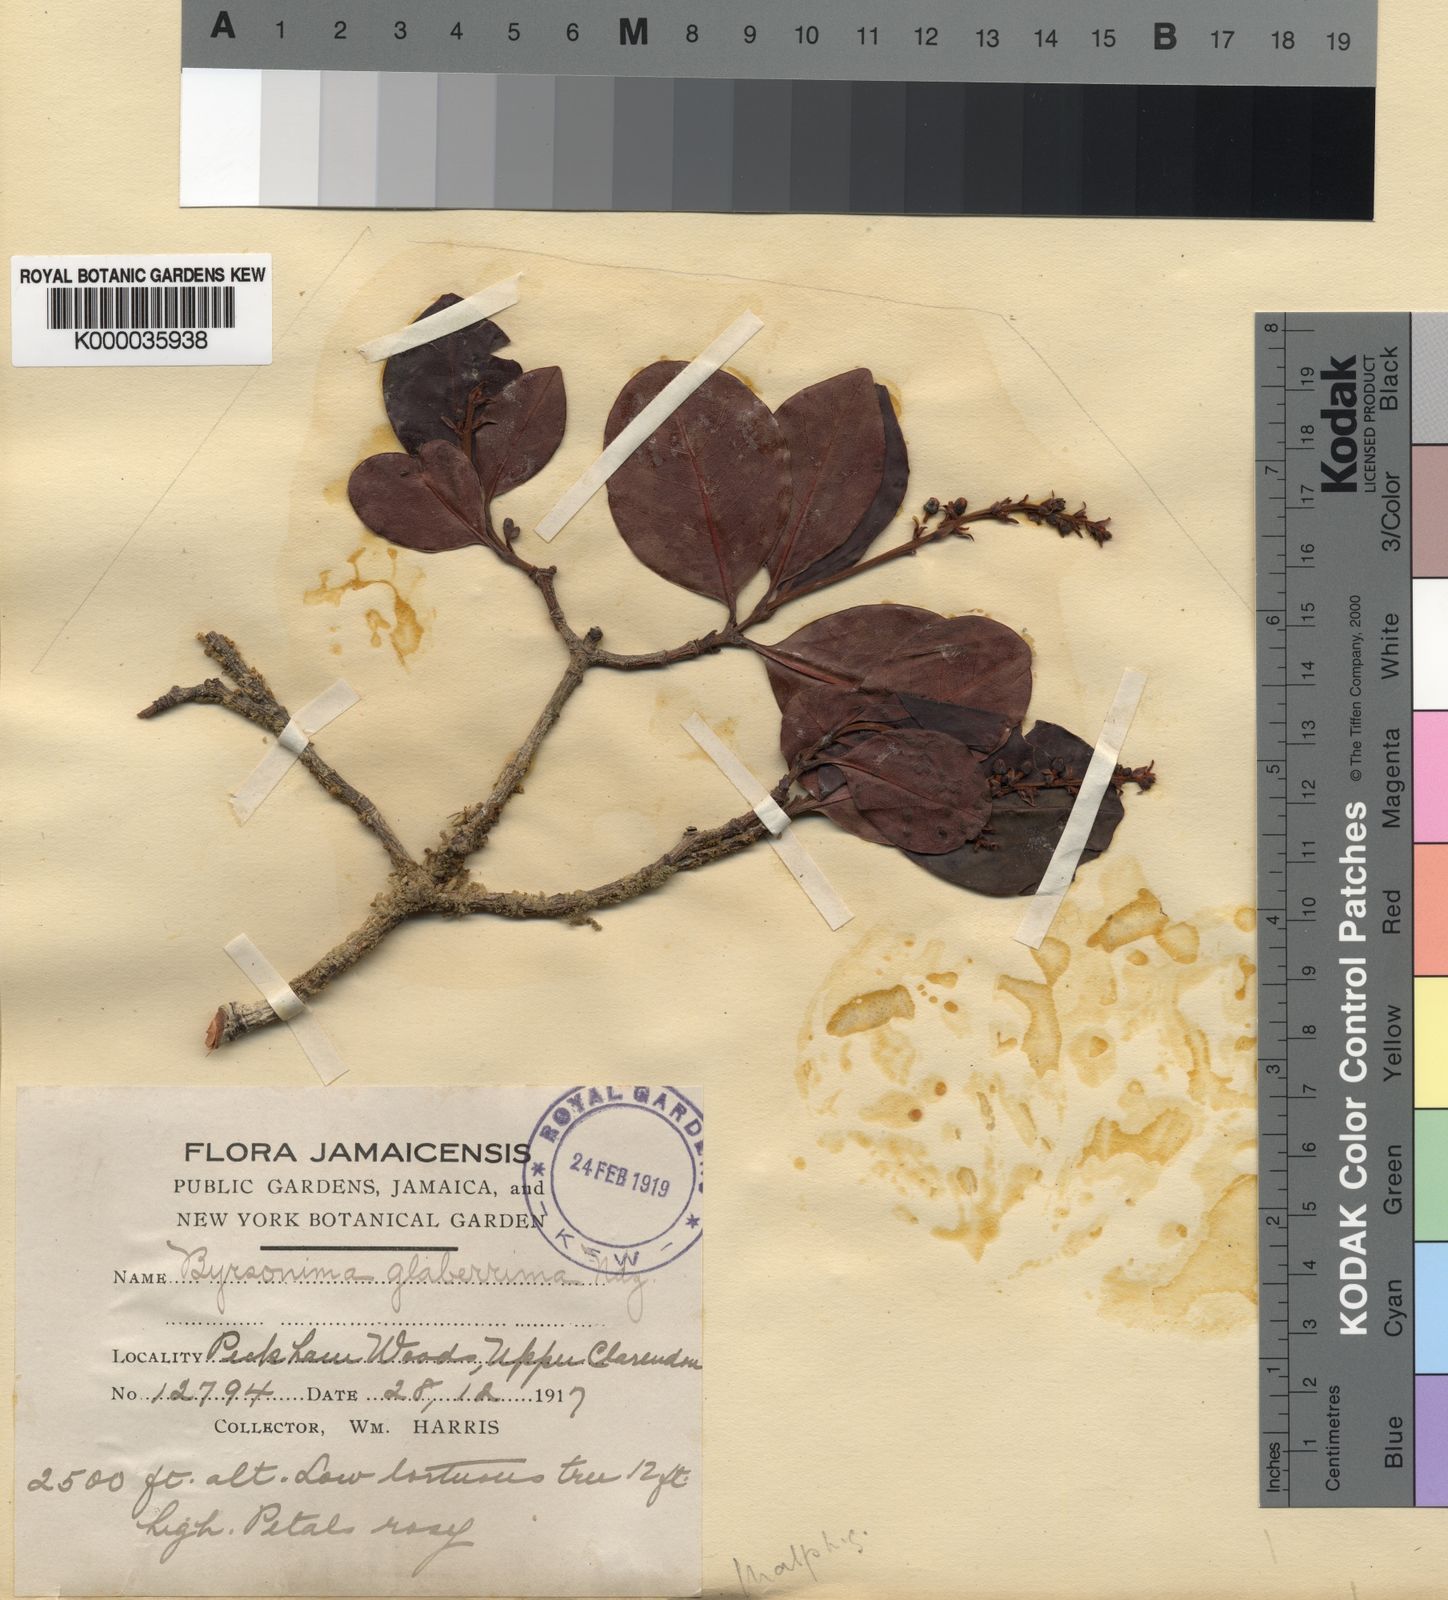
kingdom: Plantae
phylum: Tracheophyta
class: Magnoliopsida
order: Malpighiales
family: Malpighiaceae
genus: Byrsonima
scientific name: Byrsonima trinitensis
